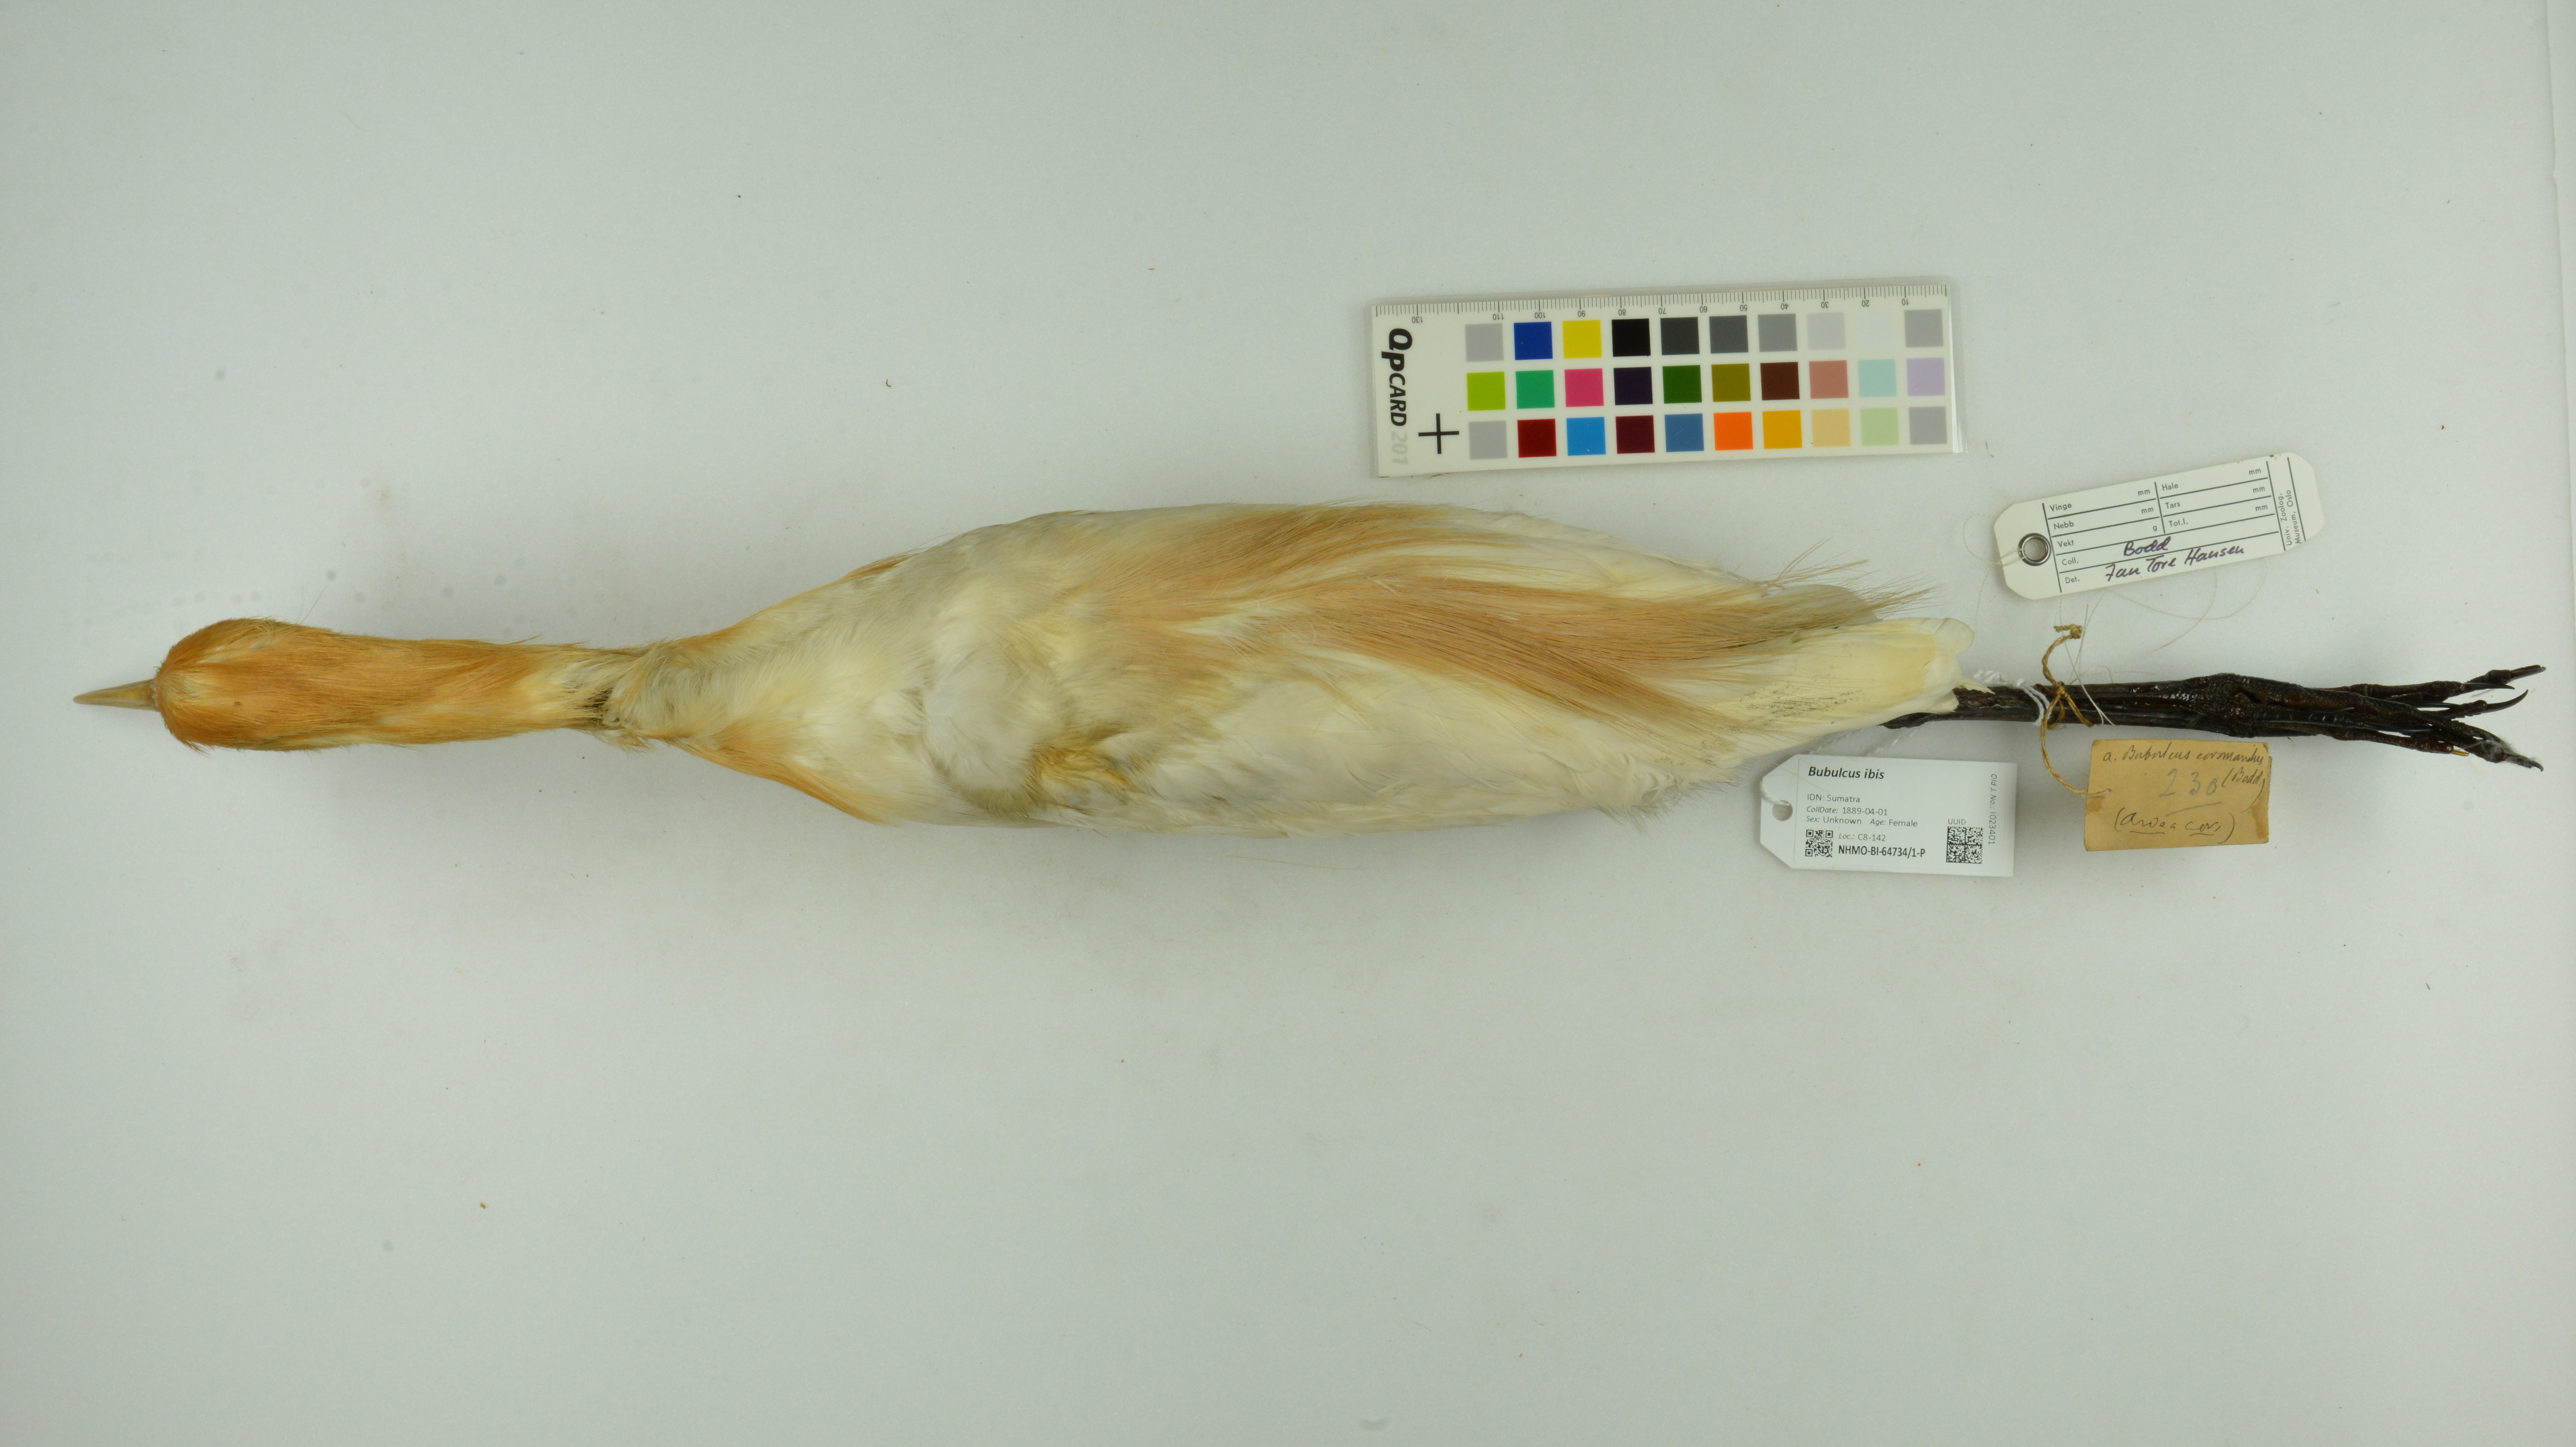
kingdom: Animalia
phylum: Chordata
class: Aves
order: Pelecaniformes
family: Ardeidae
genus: Bubulcus
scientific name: Bubulcus ibis
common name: Cattle egret
